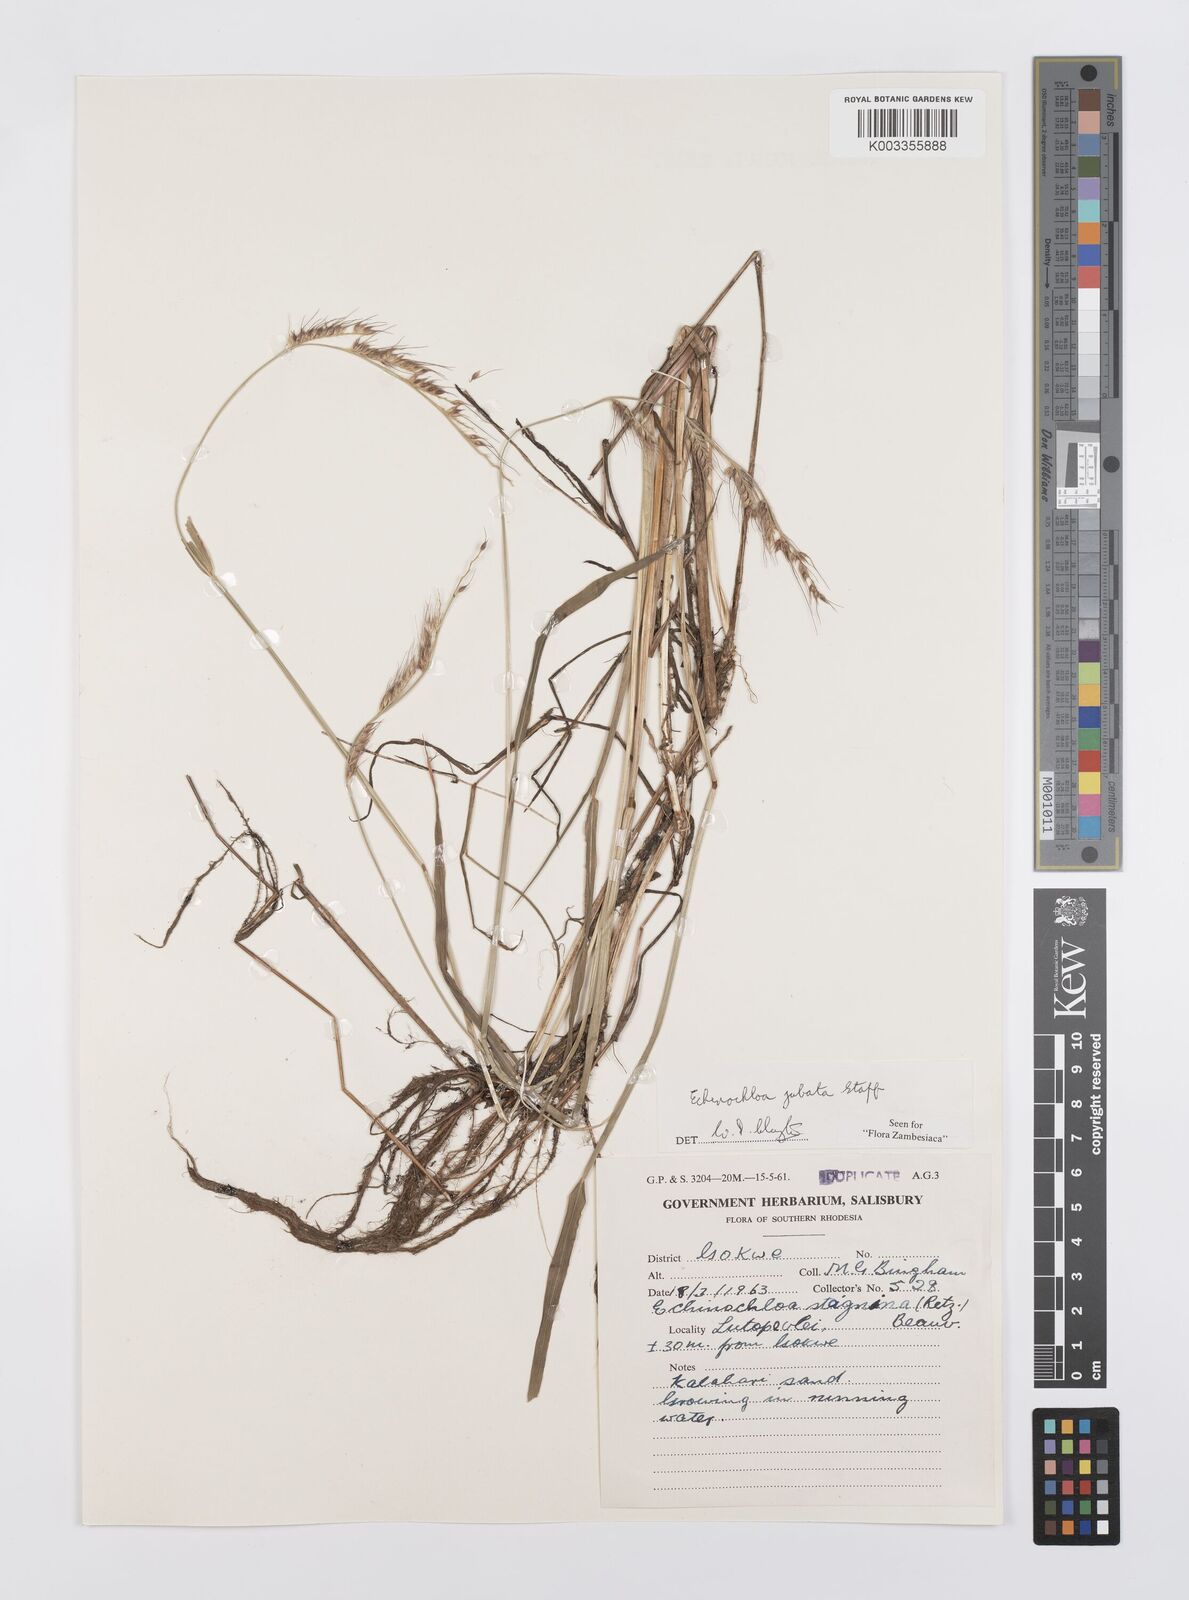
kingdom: Plantae
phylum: Tracheophyta
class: Liliopsida
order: Poales
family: Poaceae
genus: Echinochloa
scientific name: Echinochloa jubata
